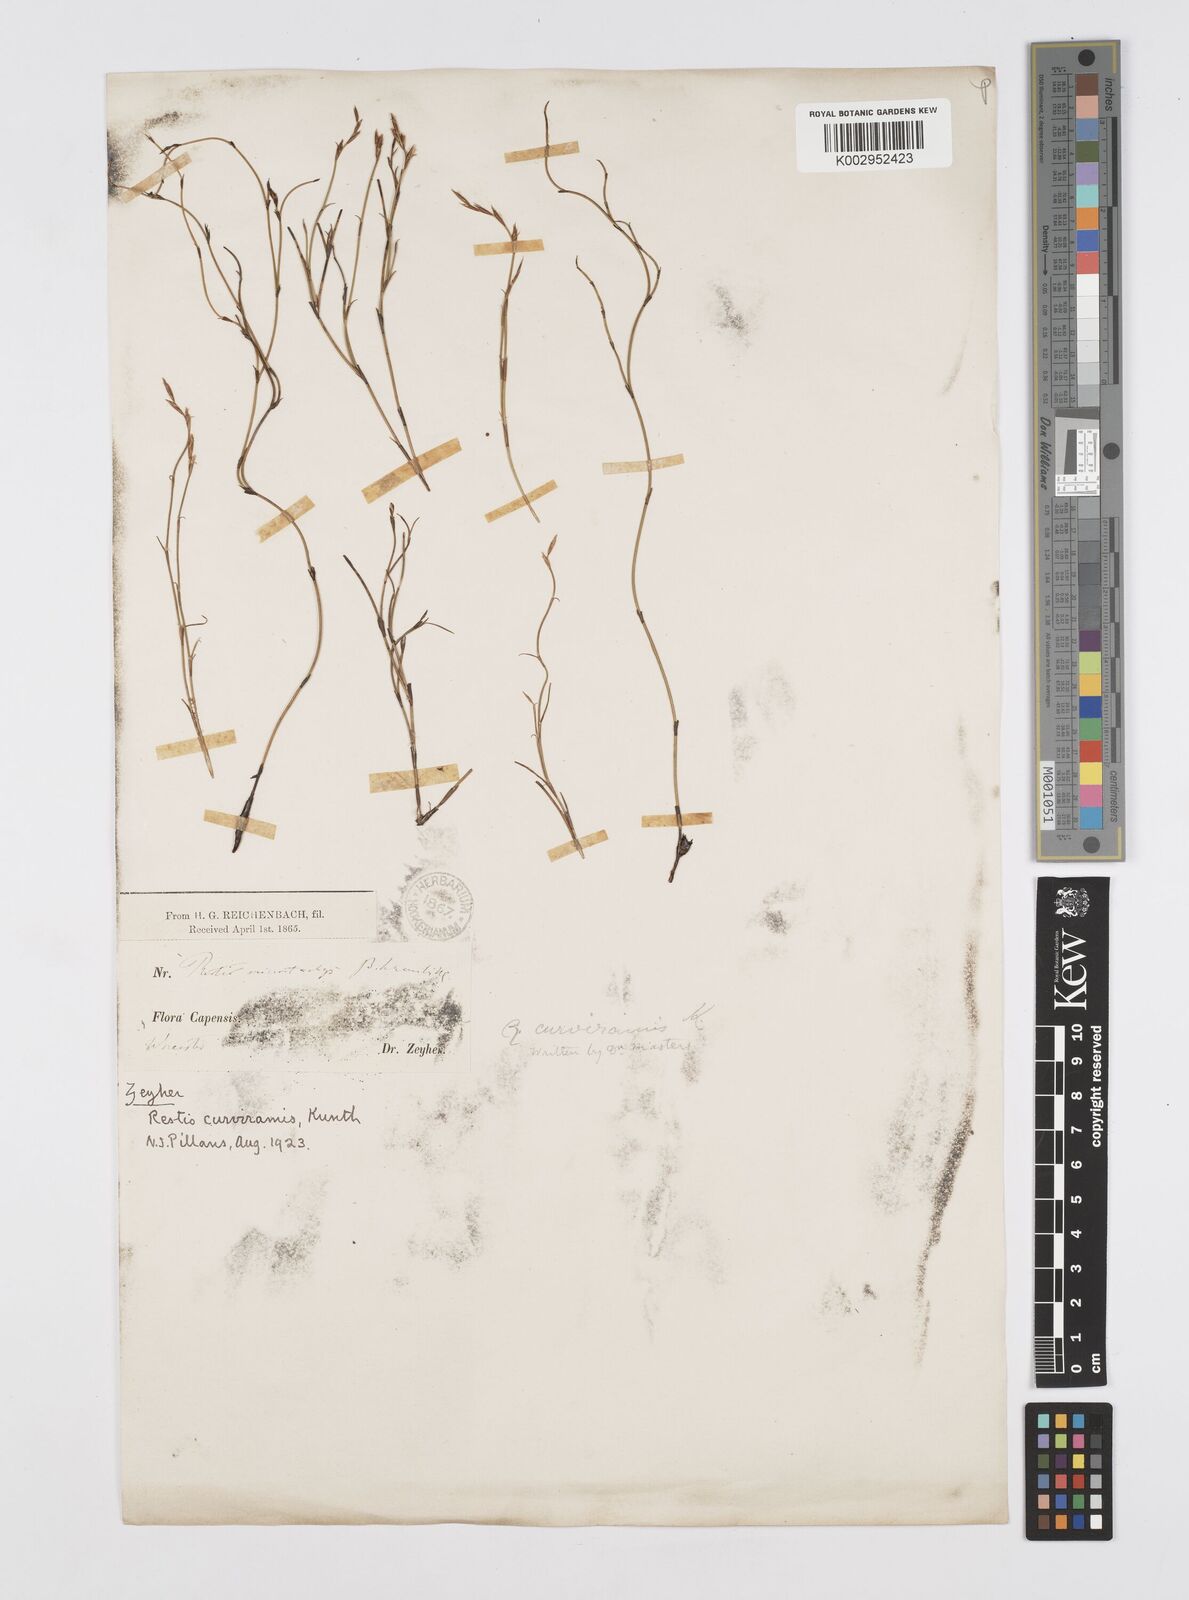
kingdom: Plantae
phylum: Tracheophyta
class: Liliopsida
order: Poales
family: Restionaceae
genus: Restio
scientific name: Restio curviramis
